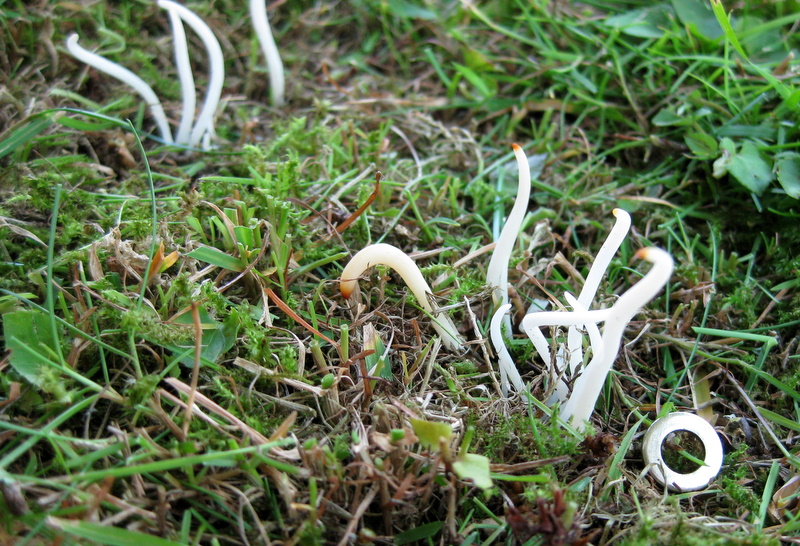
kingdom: Fungi
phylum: Basidiomycota
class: Agaricomycetes
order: Agaricales
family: Clavariaceae
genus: Clavaria
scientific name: Clavaria fragilis
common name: bugtet køllesvamp
